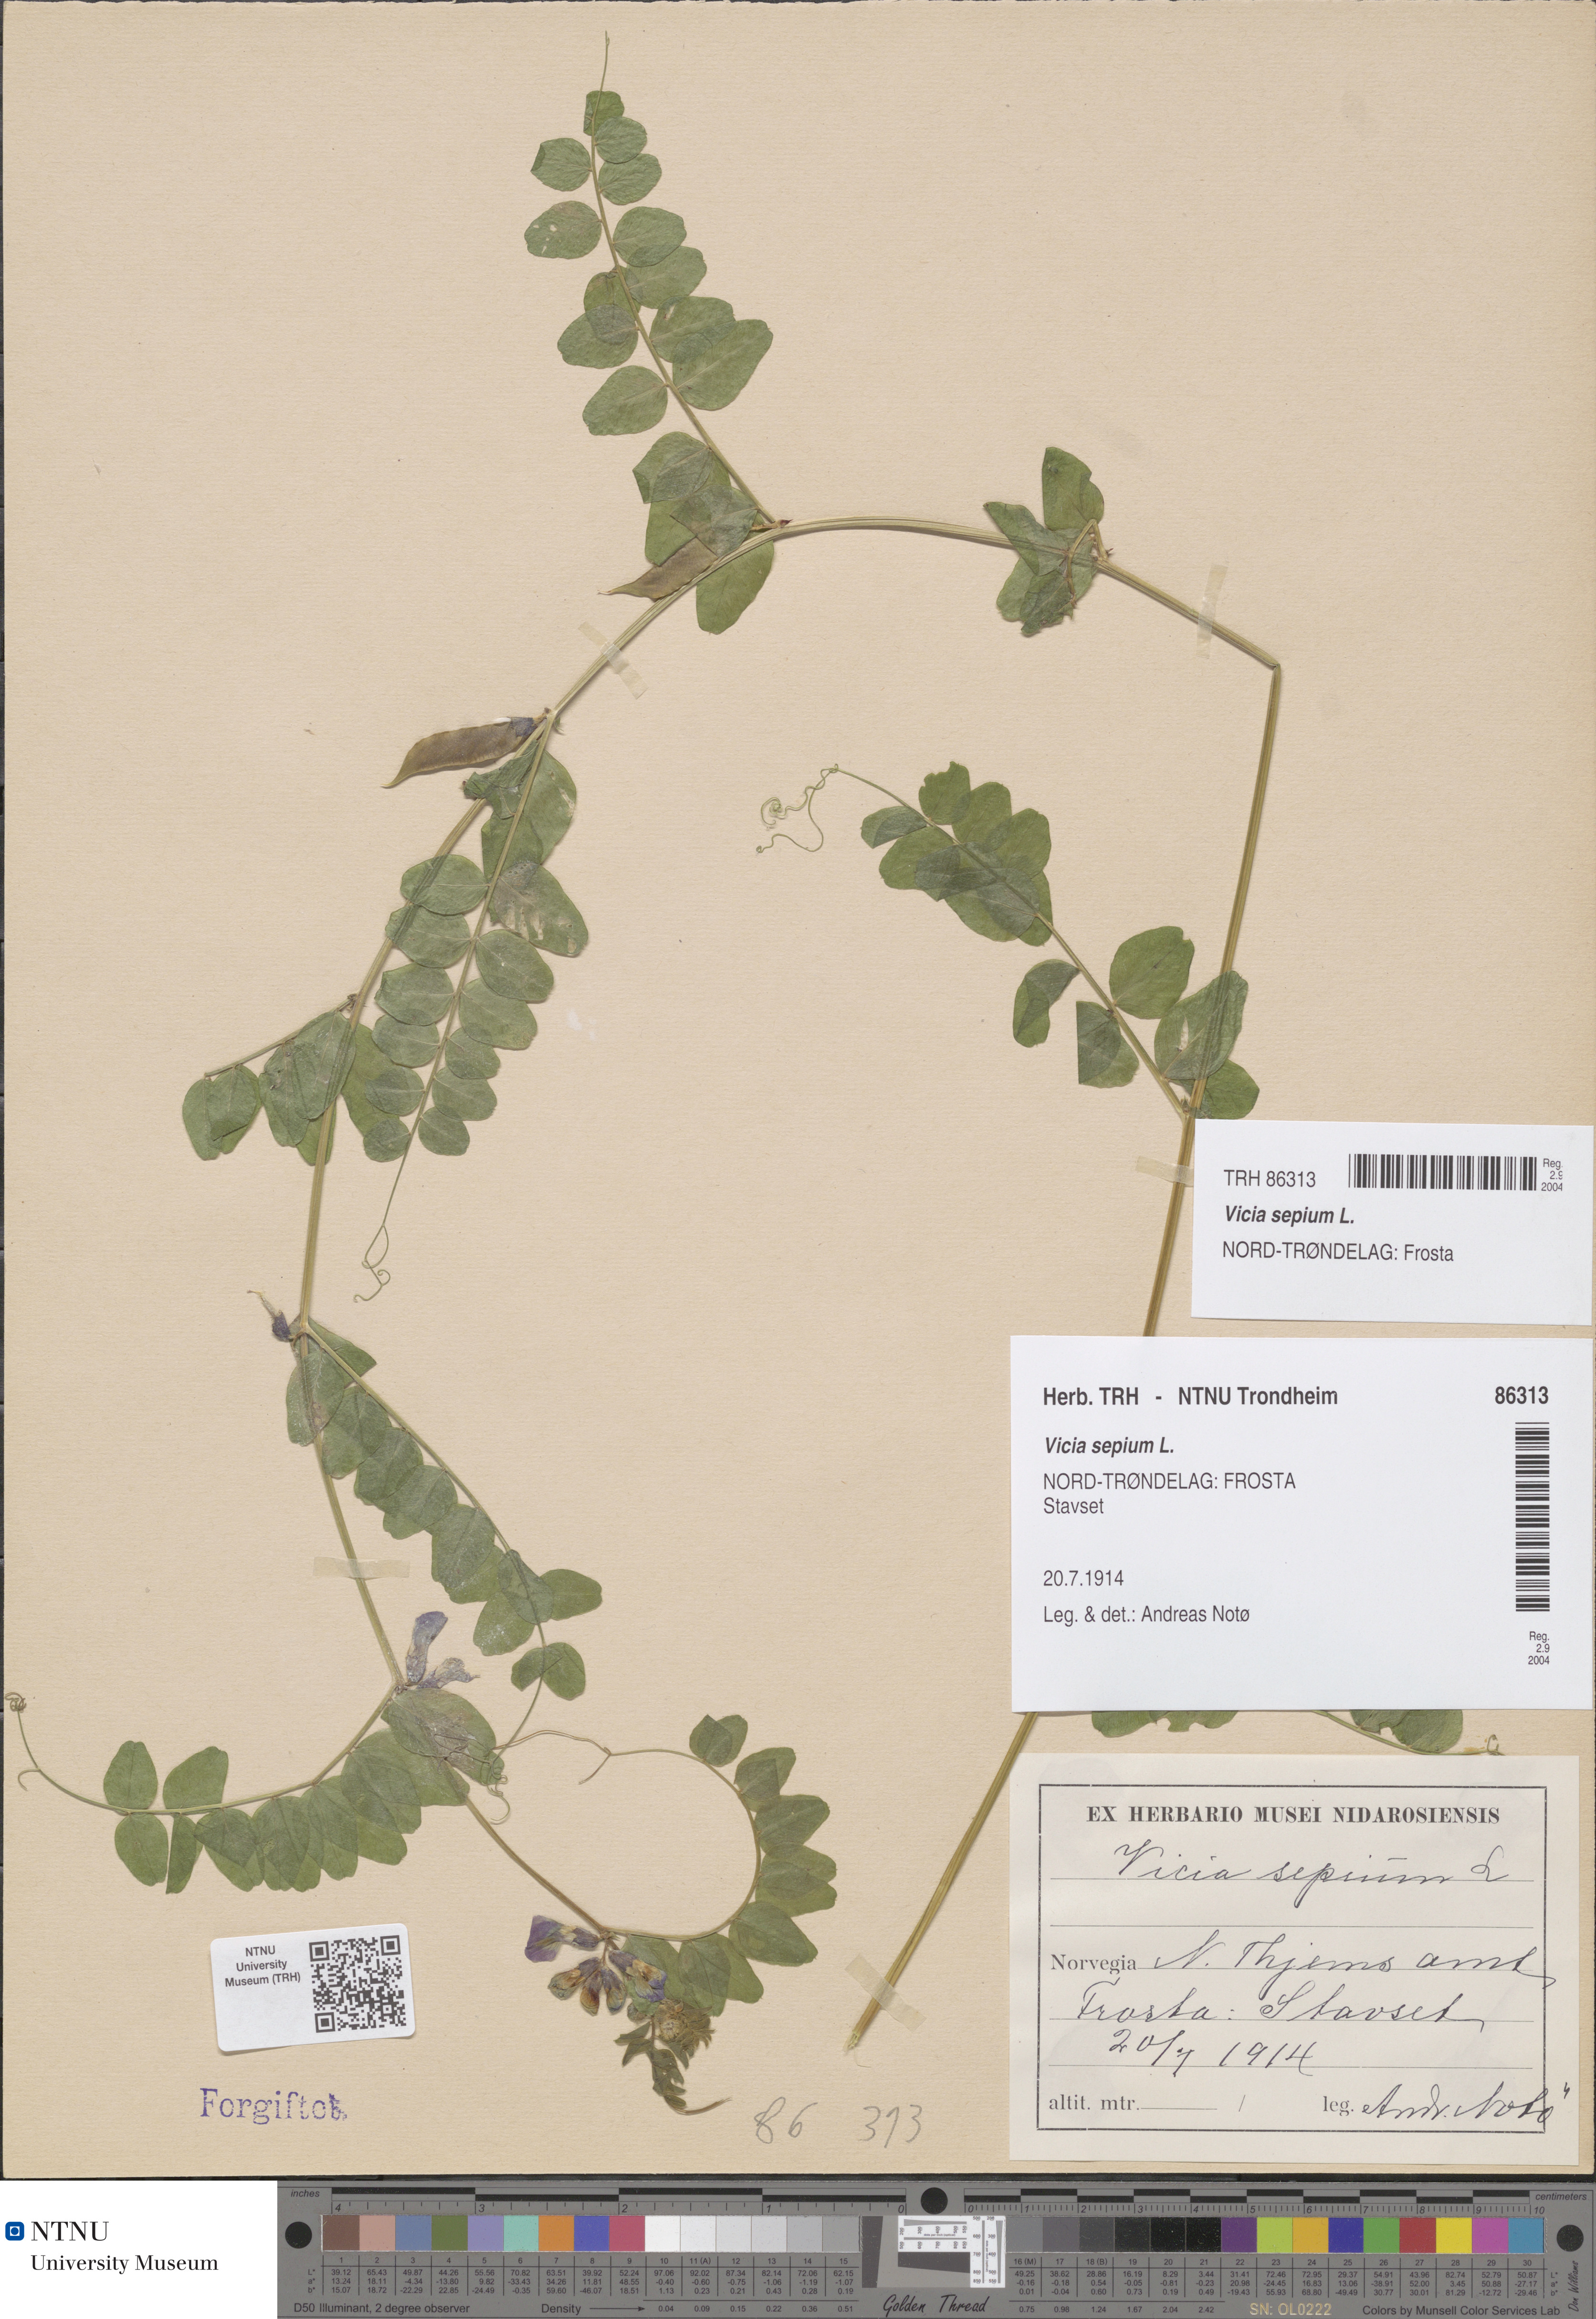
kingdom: Plantae
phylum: Tracheophyta
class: Magnoliopsida
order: Fabales
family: Fabaceae
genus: Vicia
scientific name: Vicia sepium
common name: Bush vetch
